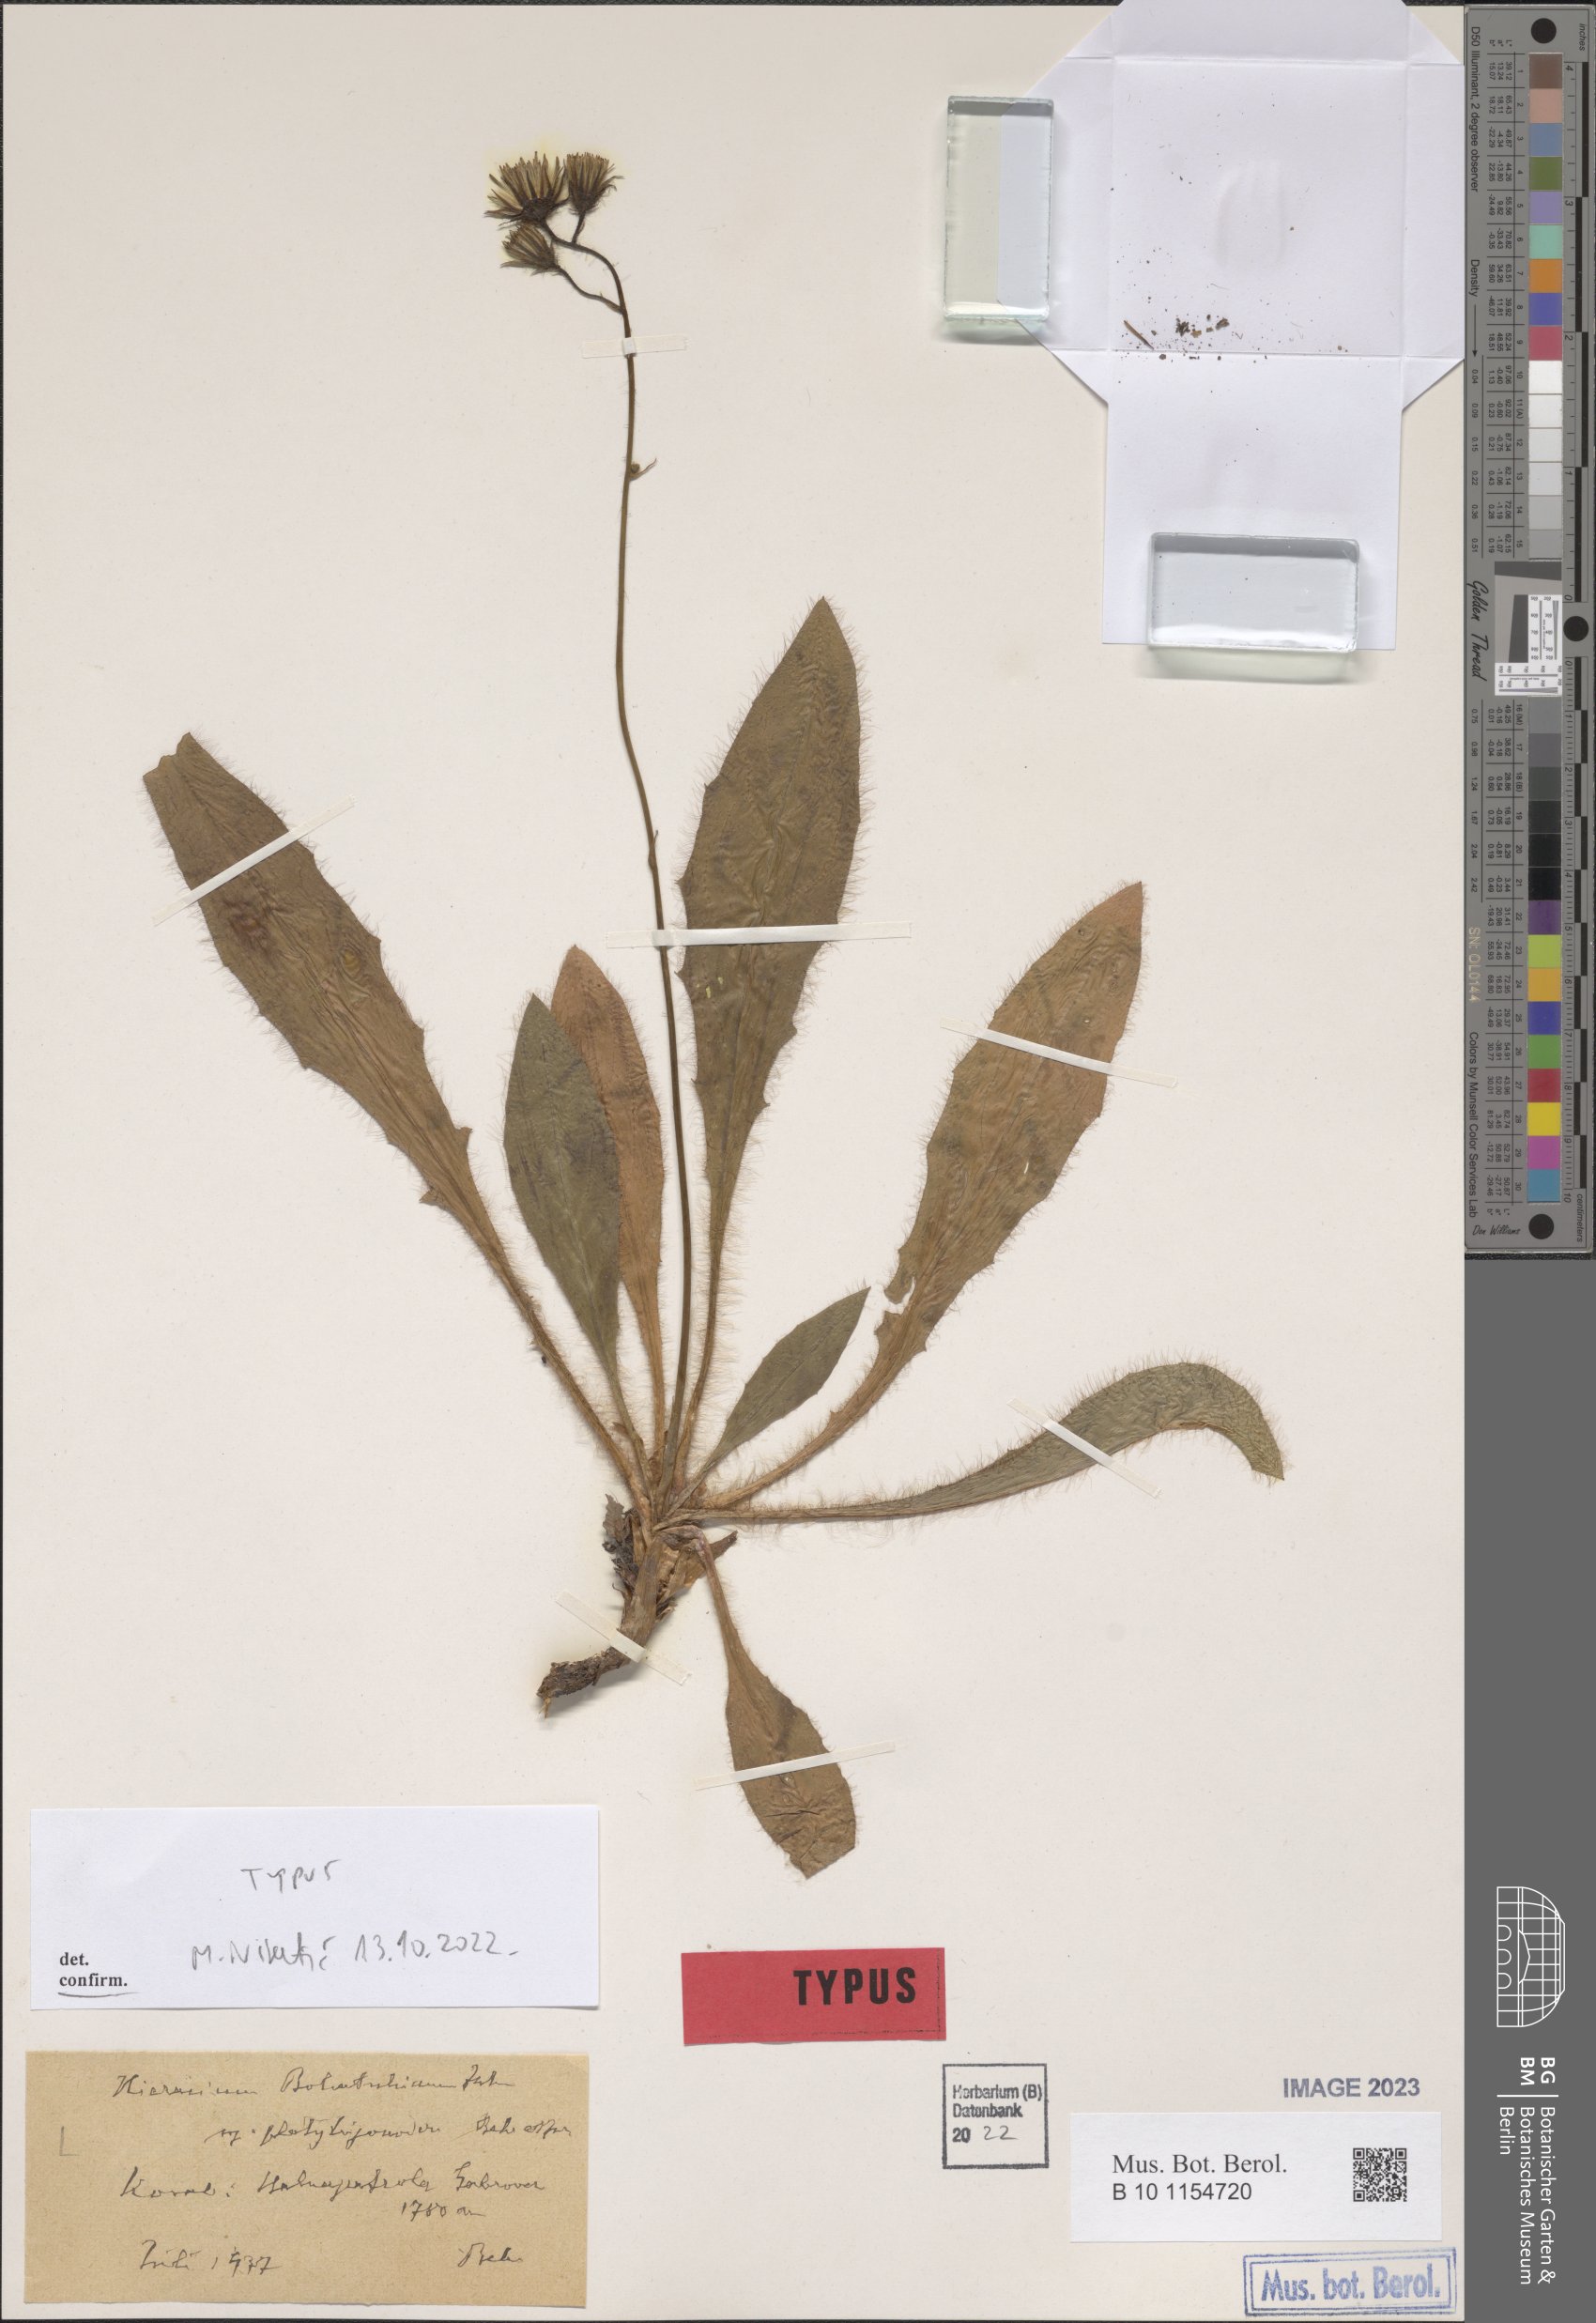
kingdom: Plantae
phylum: Tracheophyta
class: Magnoliopsida
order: Asterales
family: Asteraceae
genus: Hieracium
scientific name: Hieracium bohatschianum
